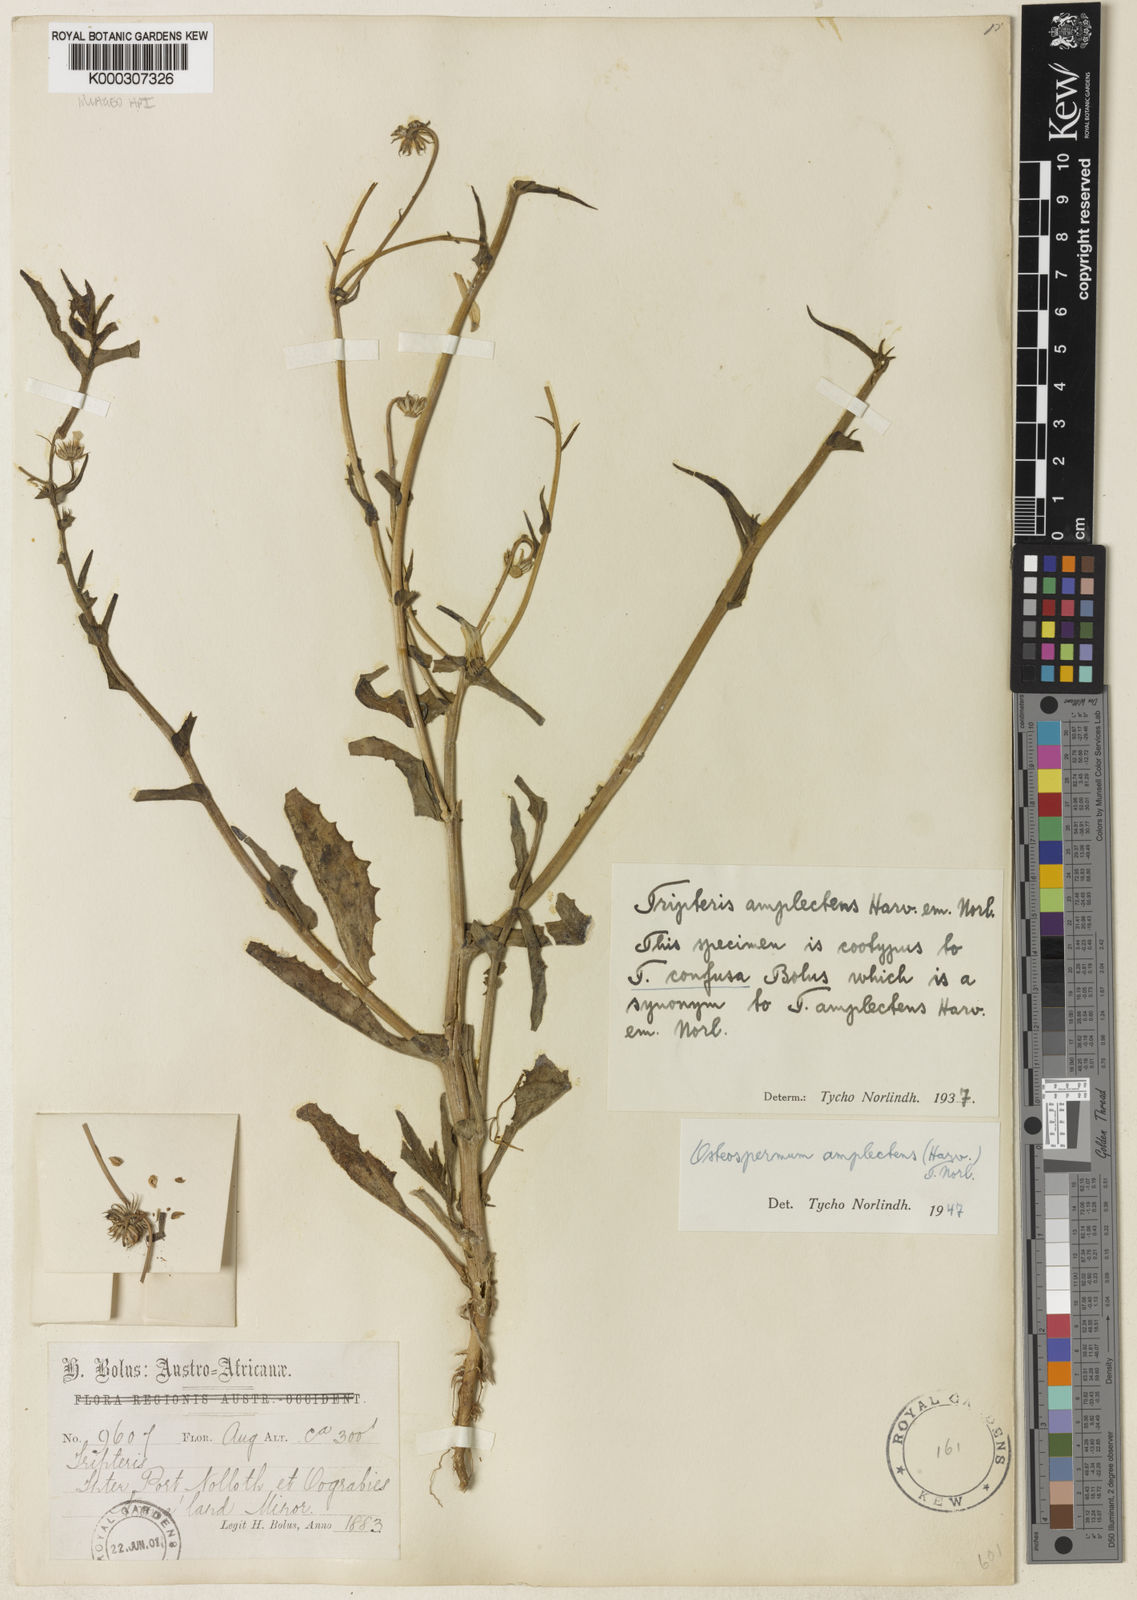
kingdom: Plantae
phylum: Tracheophyta
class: Magnoliopsida
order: Asterales
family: Asteraceae
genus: Osteospermum
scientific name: Osteospermum amplectens
